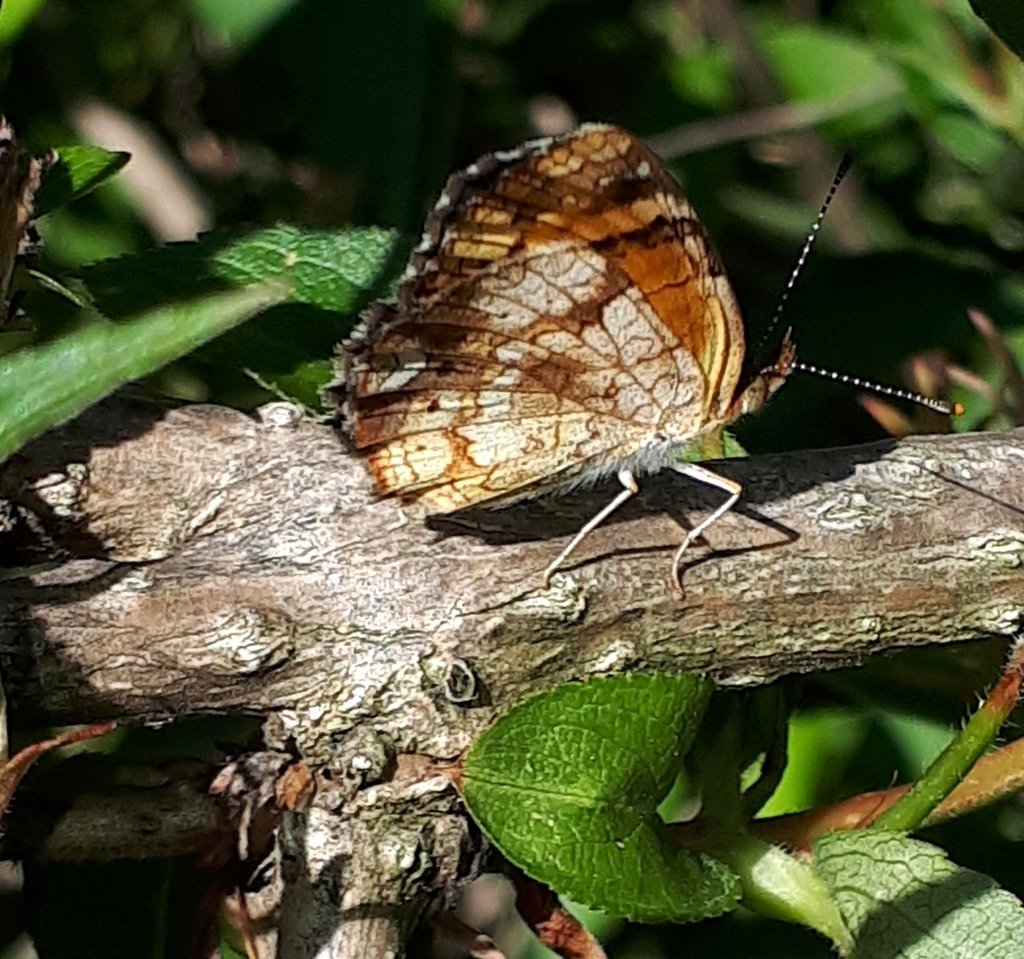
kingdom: Animalia
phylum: Arthropoda
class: Insecta
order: Lepidoptera
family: Nymphalidae
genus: Phyciodes
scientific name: Phyciodes tharos
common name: Northern Crescent
